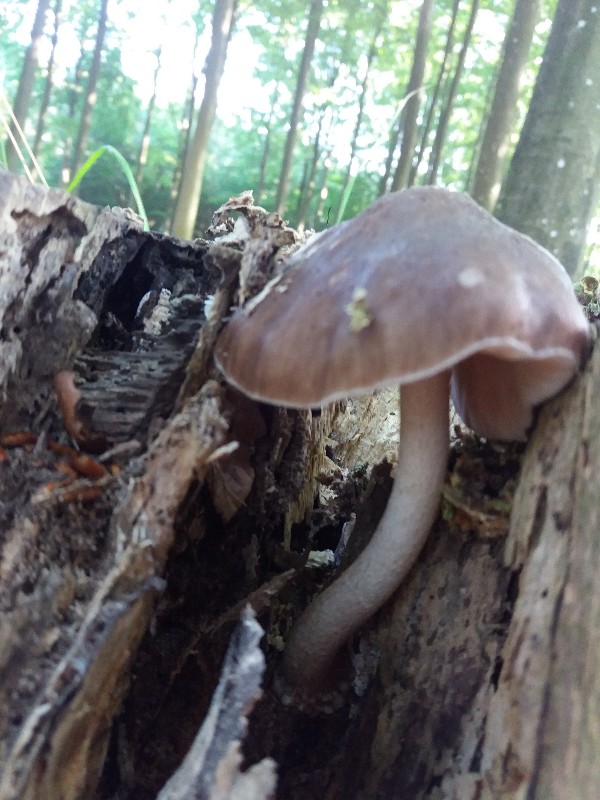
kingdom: Fungi
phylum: Basidiomycota
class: Agaricomycetes
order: Agaricales
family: Pluteaceae
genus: Pluteus
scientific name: Pluteus cervinus
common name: sodfarvet skærmhat
